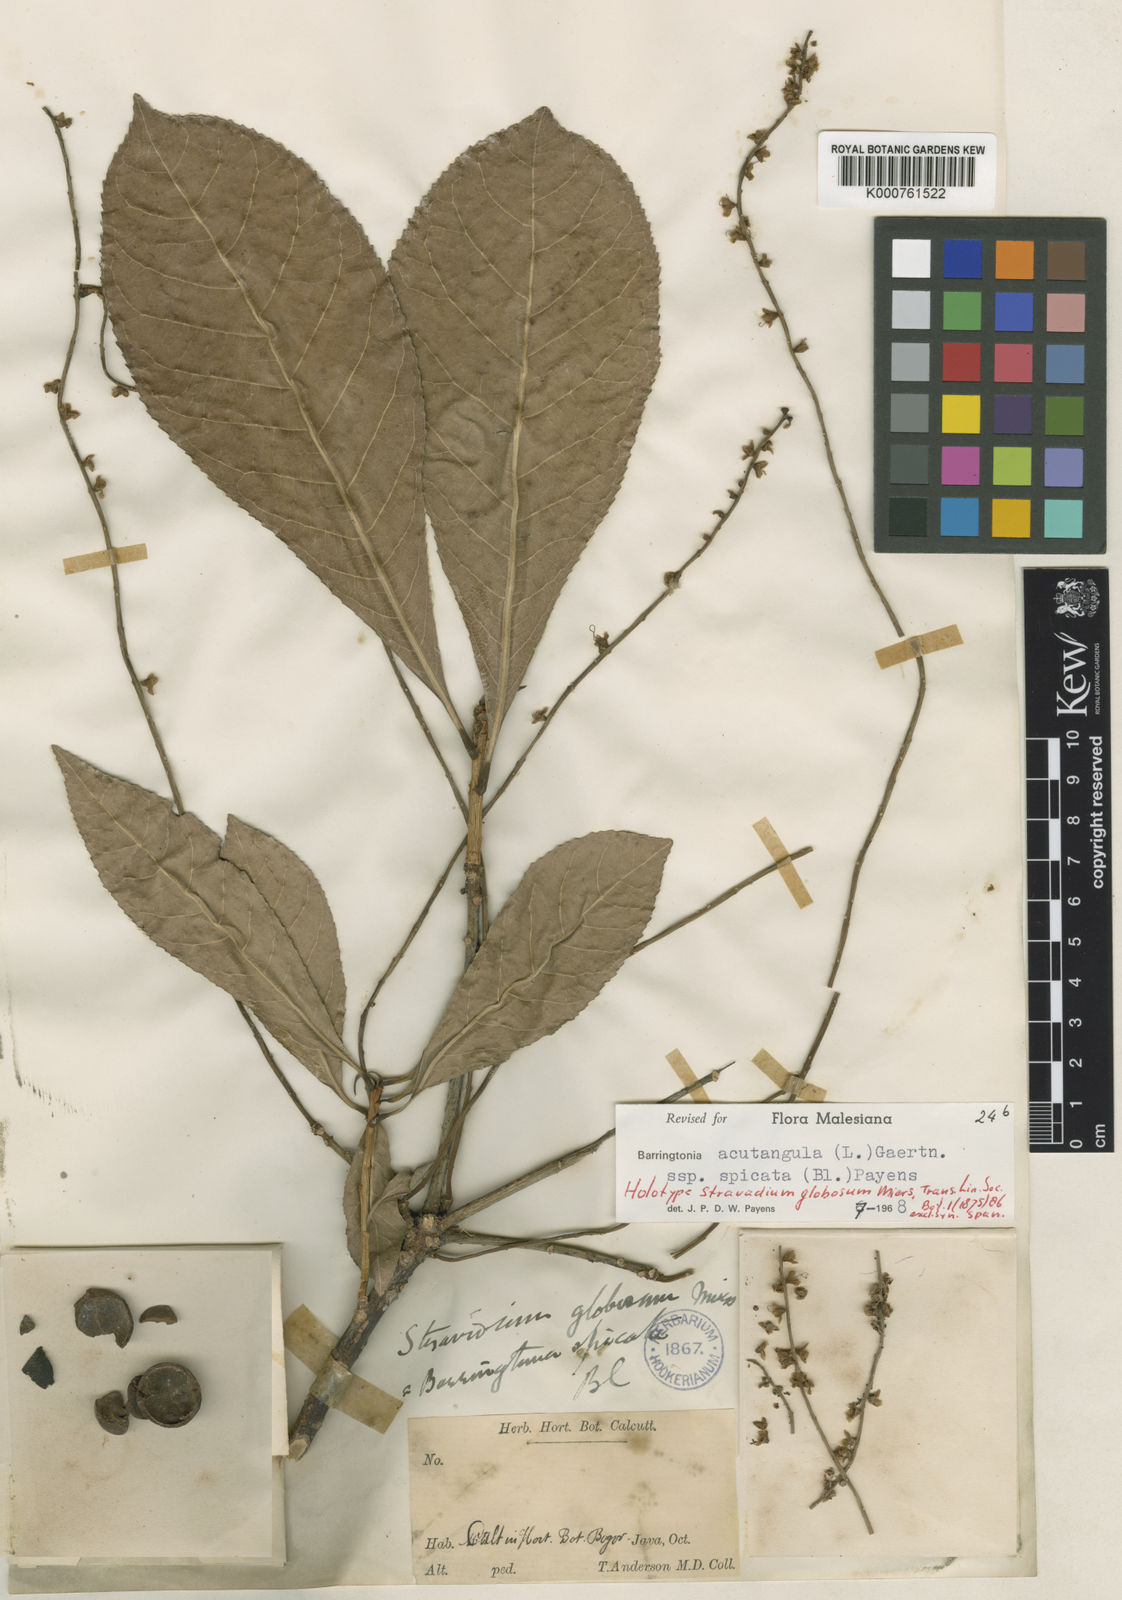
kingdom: Plantae
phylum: Tracheophyta
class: Magnoliopsida
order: Ericales
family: Lecythidaceae
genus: Barringtonia
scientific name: Barringtonia acutangula
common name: Freshwater mangrove
